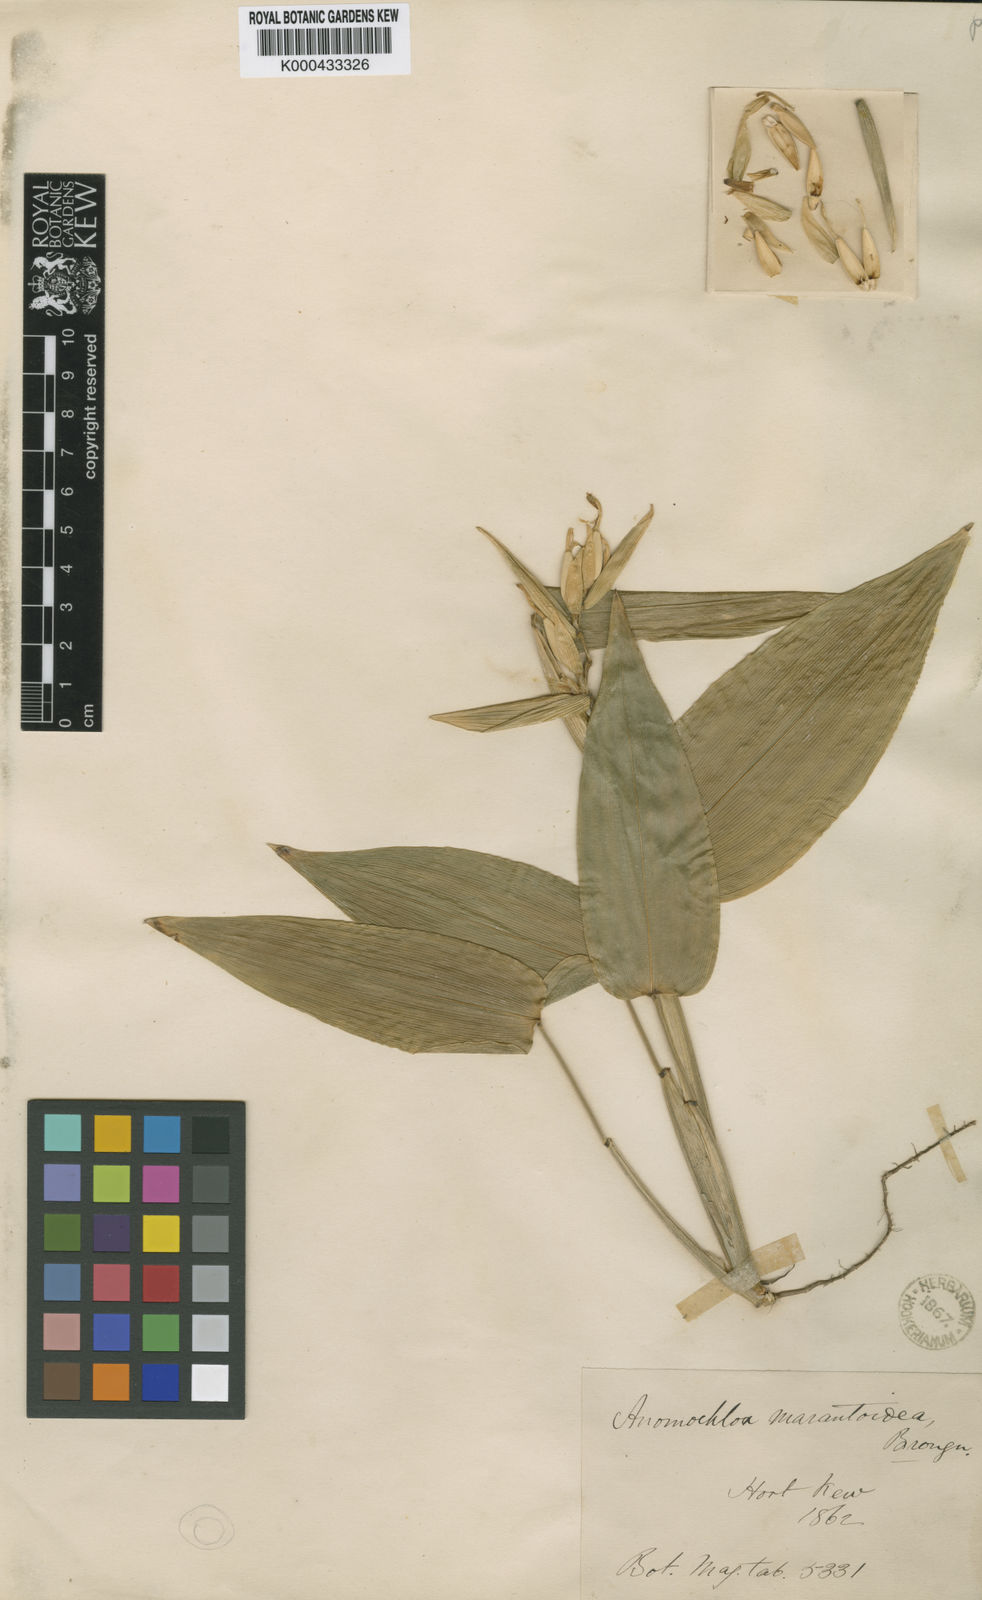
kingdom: Plantae
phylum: Tracheophyta
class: Liliopsida
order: Poales
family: Poaceae
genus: Anomochloa
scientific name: Anomochloa marantoidea
